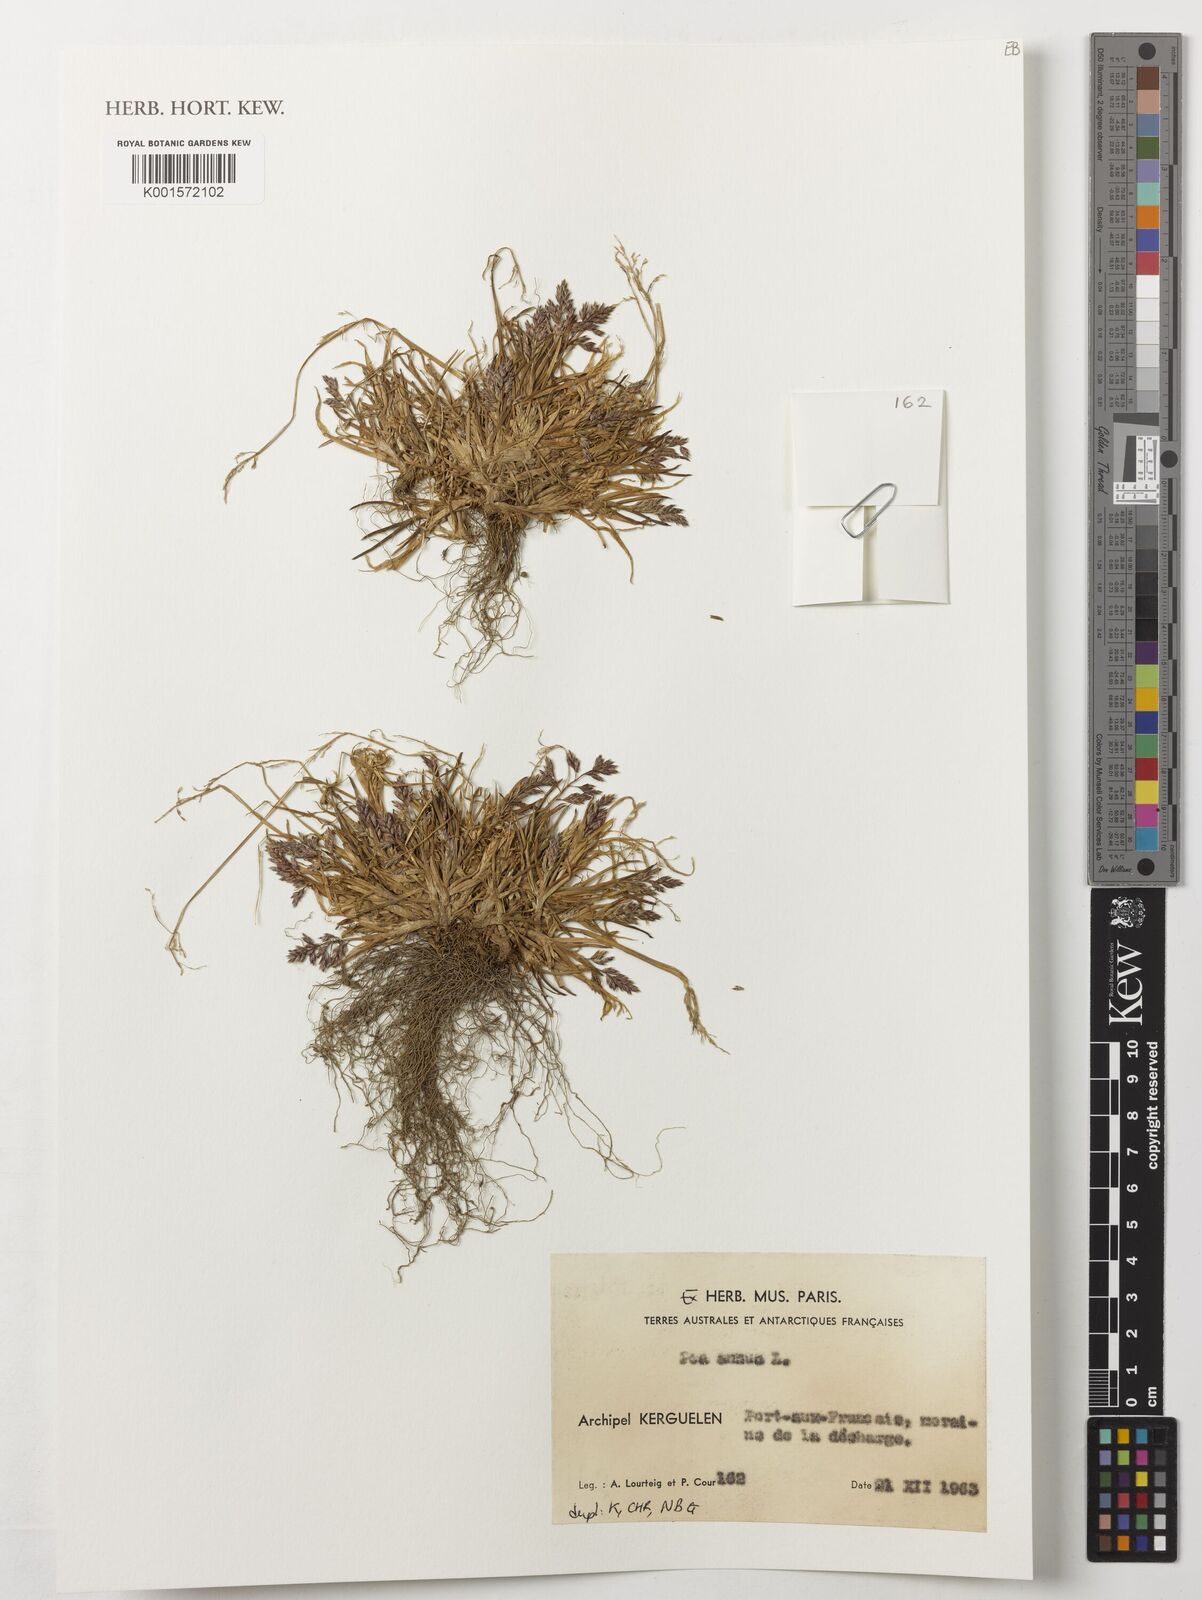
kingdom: Plantae
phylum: Tracheophyta
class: Liliopsida
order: Poales
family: Poaceae
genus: Poa
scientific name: Poa annua
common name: Annual bluegrass
